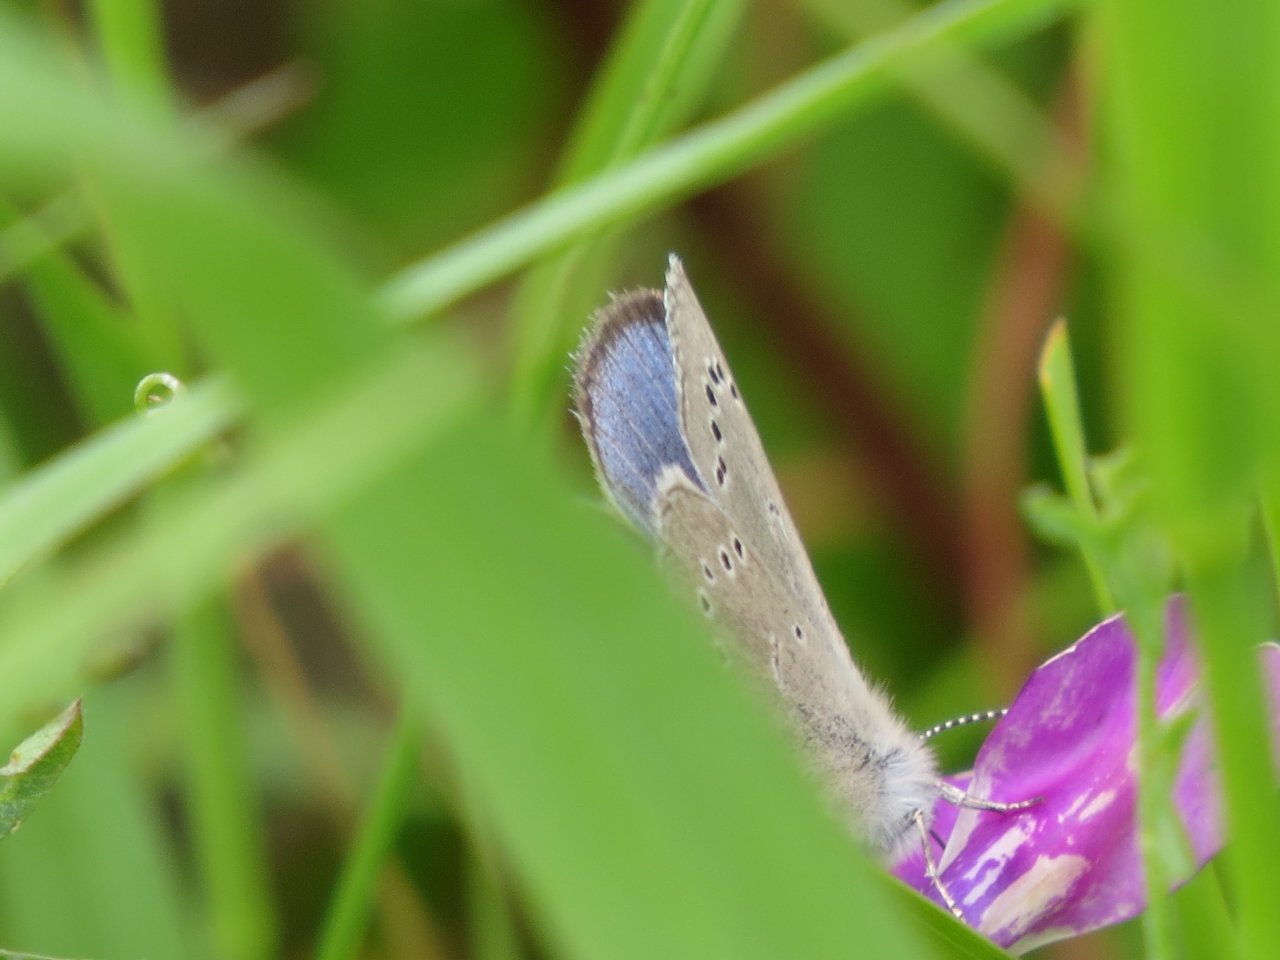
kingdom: Animalia
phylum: Arthropoda
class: Insecta
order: Lepidoptera
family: Lycaenidae
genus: Glaucopsyche
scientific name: Glaucopsyche lygdamus
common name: Silvery Blue
